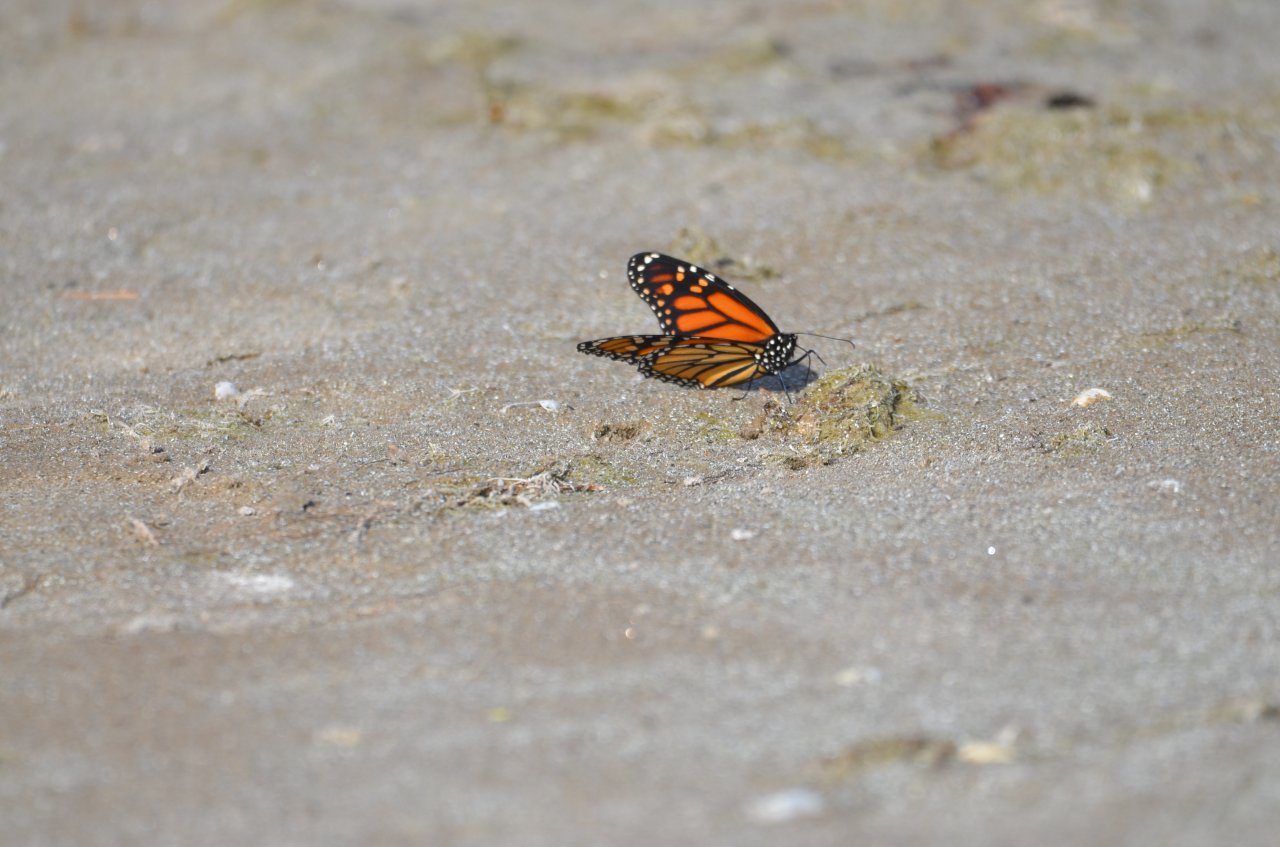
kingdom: Animalia
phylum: Arthropoda
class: Insecta
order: Lepidoptera
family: Nymphalidae
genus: Danaus
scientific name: Danaus plexippus
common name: Monarch
